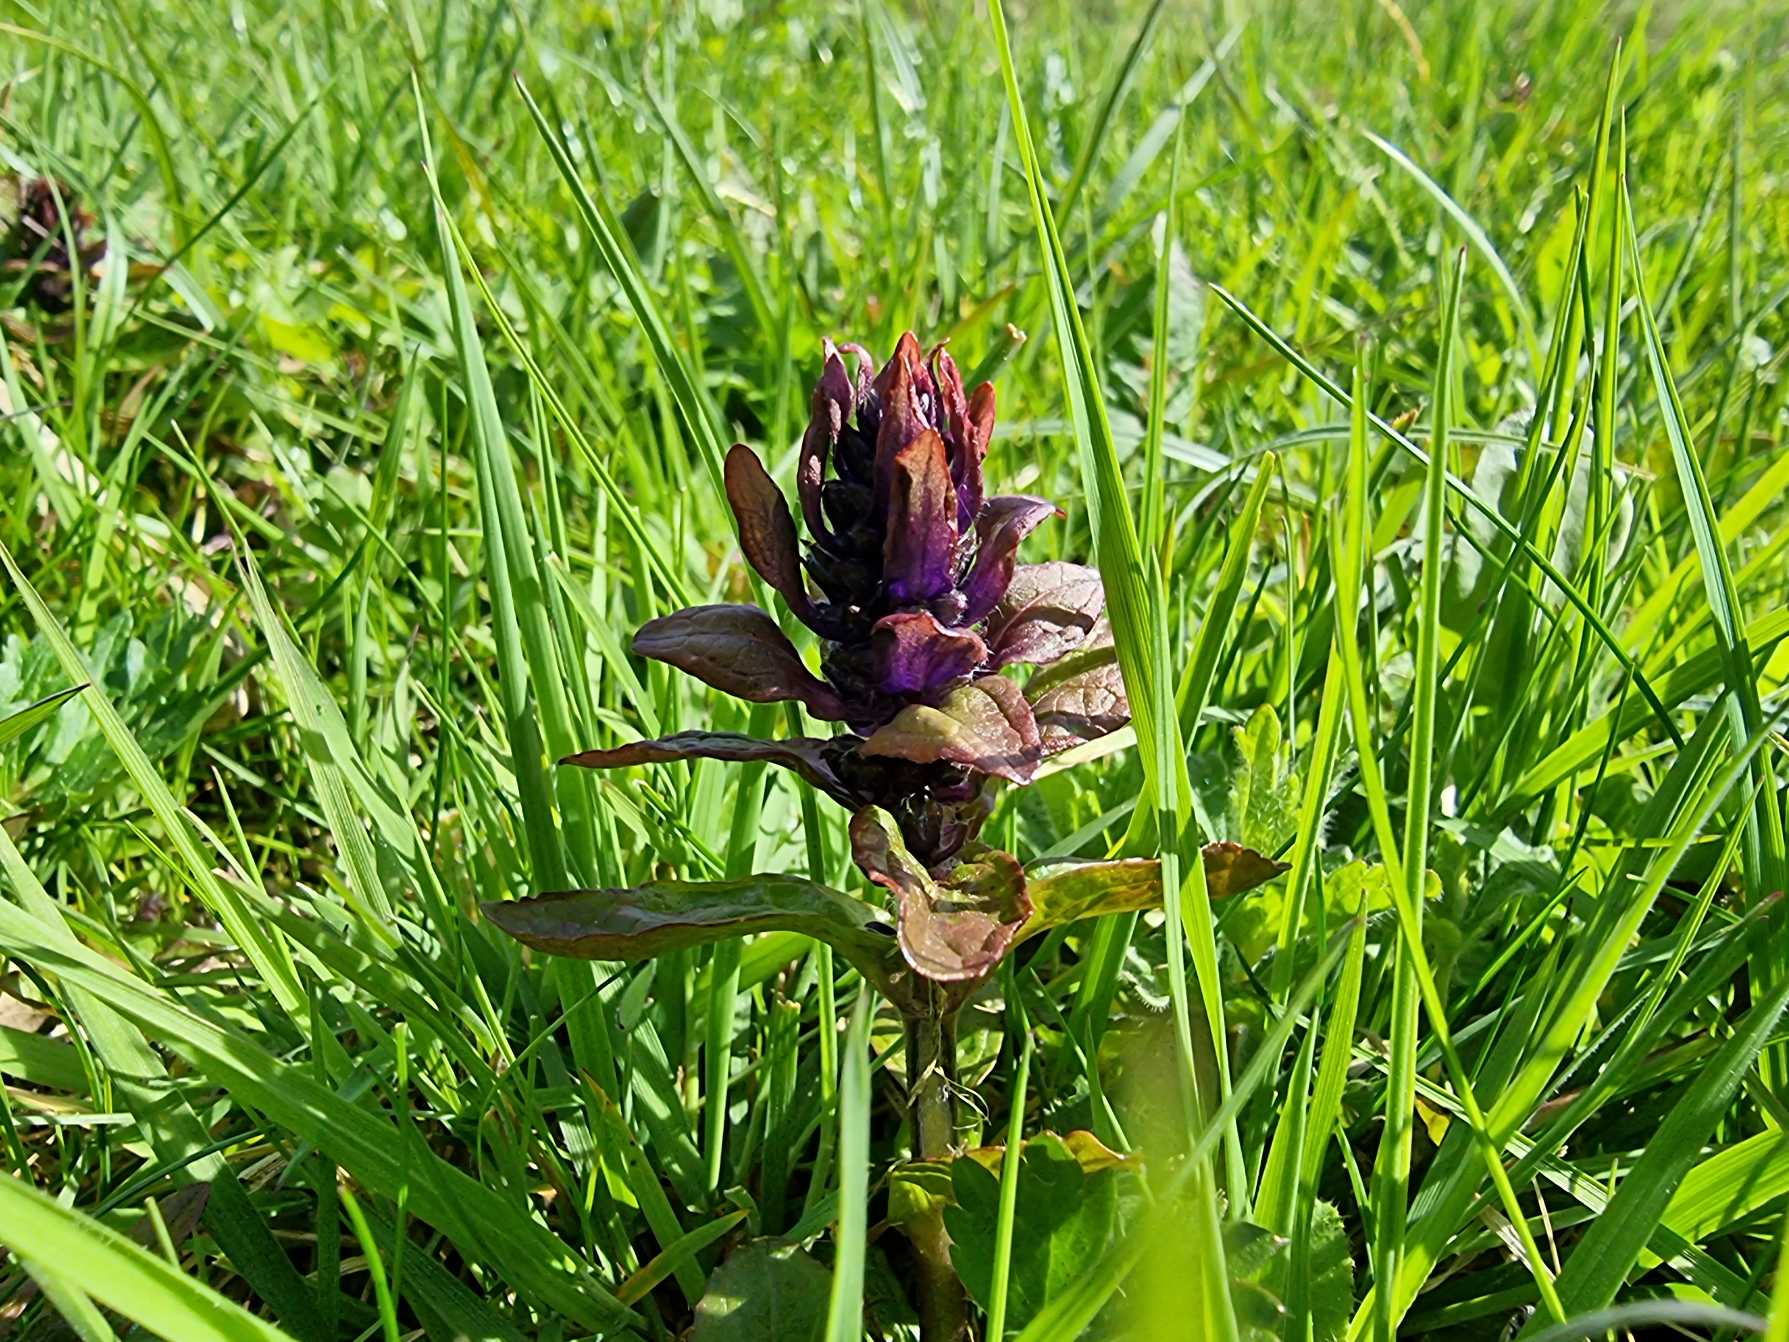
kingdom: Plantae
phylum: Tracheophyta
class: Magnoliopsida
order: Lamiales
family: Lamiaceae
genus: Ajuga
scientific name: Ajuga reptans
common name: Krybende læbeløs
